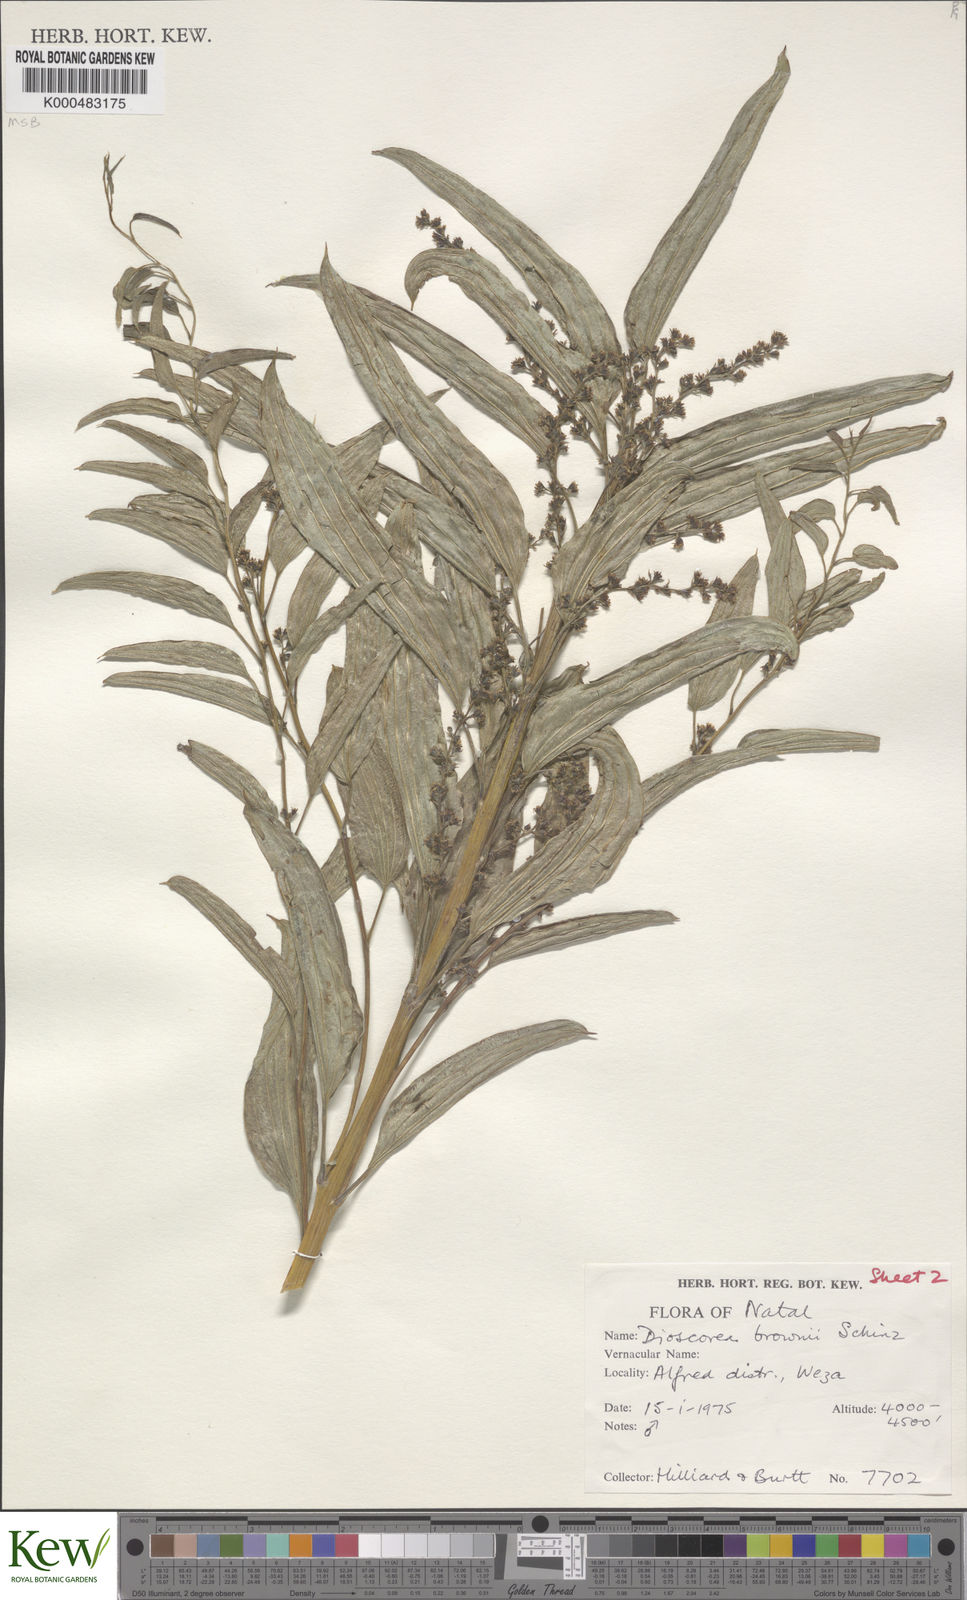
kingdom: Plantae
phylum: Tracheophyta
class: Liliopsida
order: Dioscoreales
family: Dioscoreaceae
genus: Dioscorea
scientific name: Dioscorea brownii
